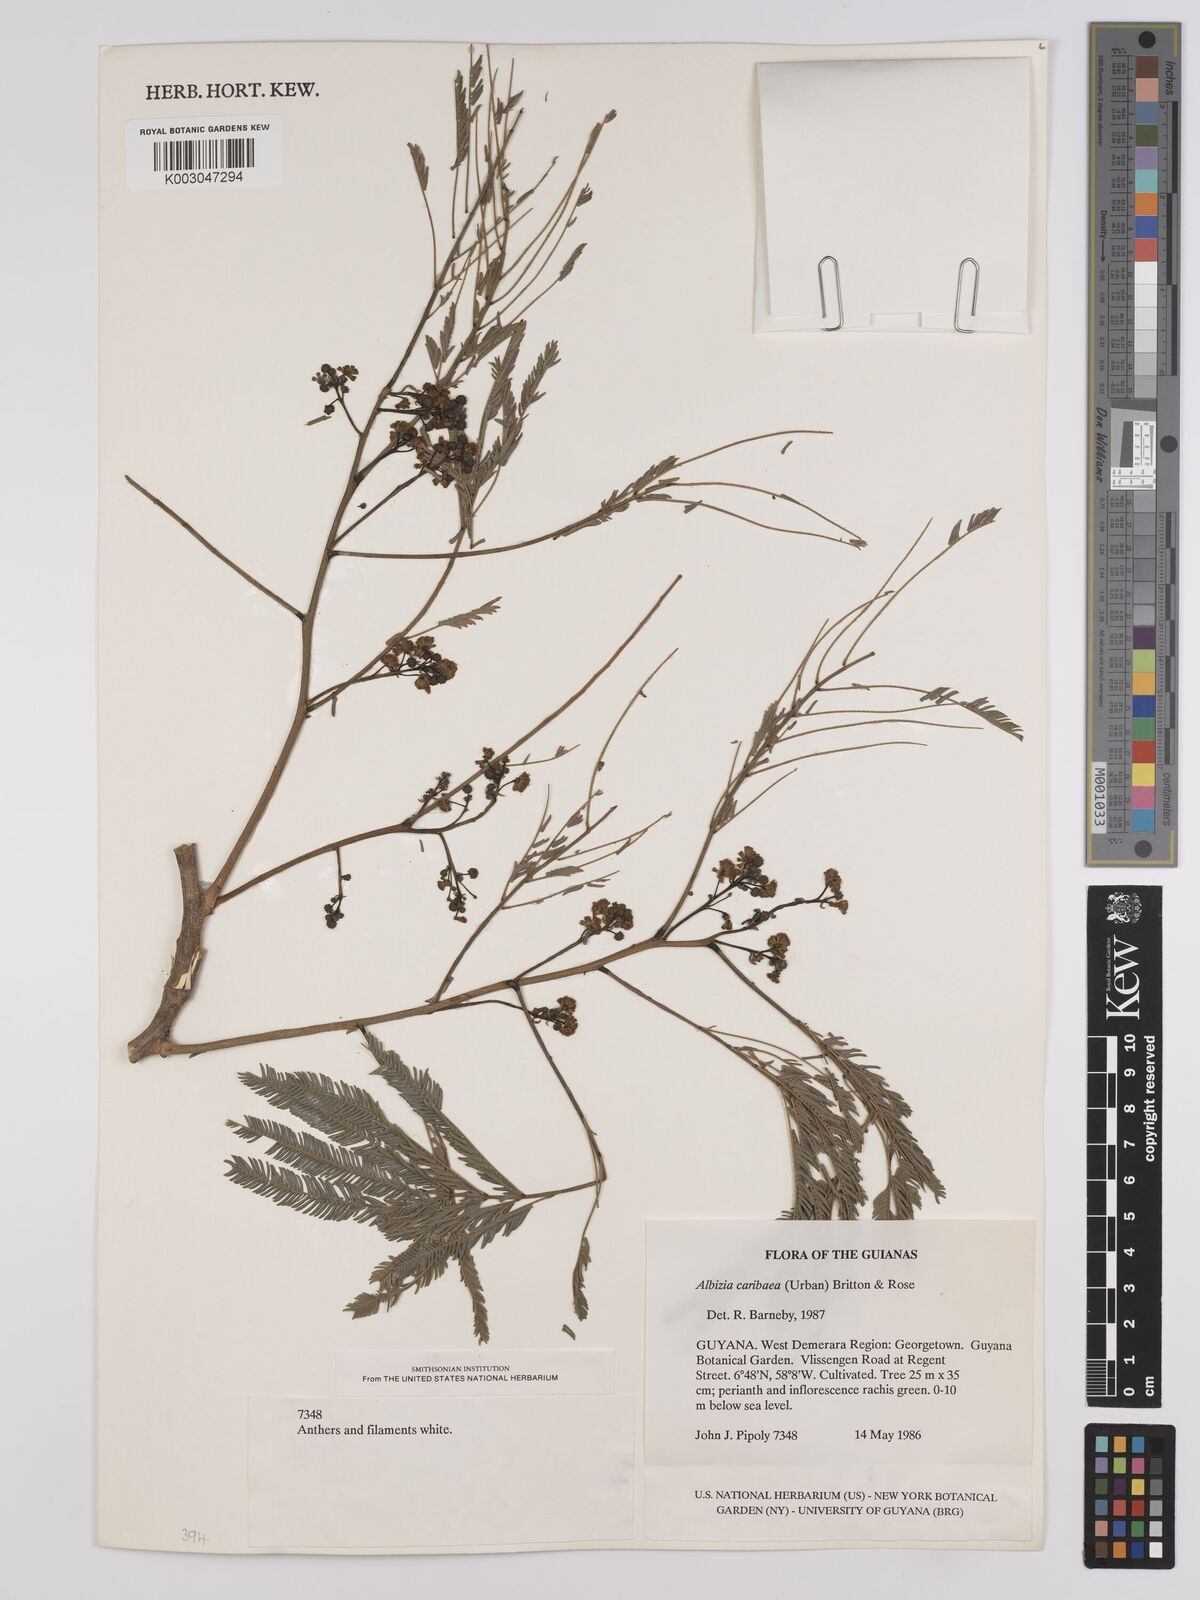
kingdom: Plantae
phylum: Tracheophyta
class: Magnoliopsida
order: Fabales
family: Fabaceae
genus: Albizia
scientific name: Albizia niopoides
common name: Silk tree
